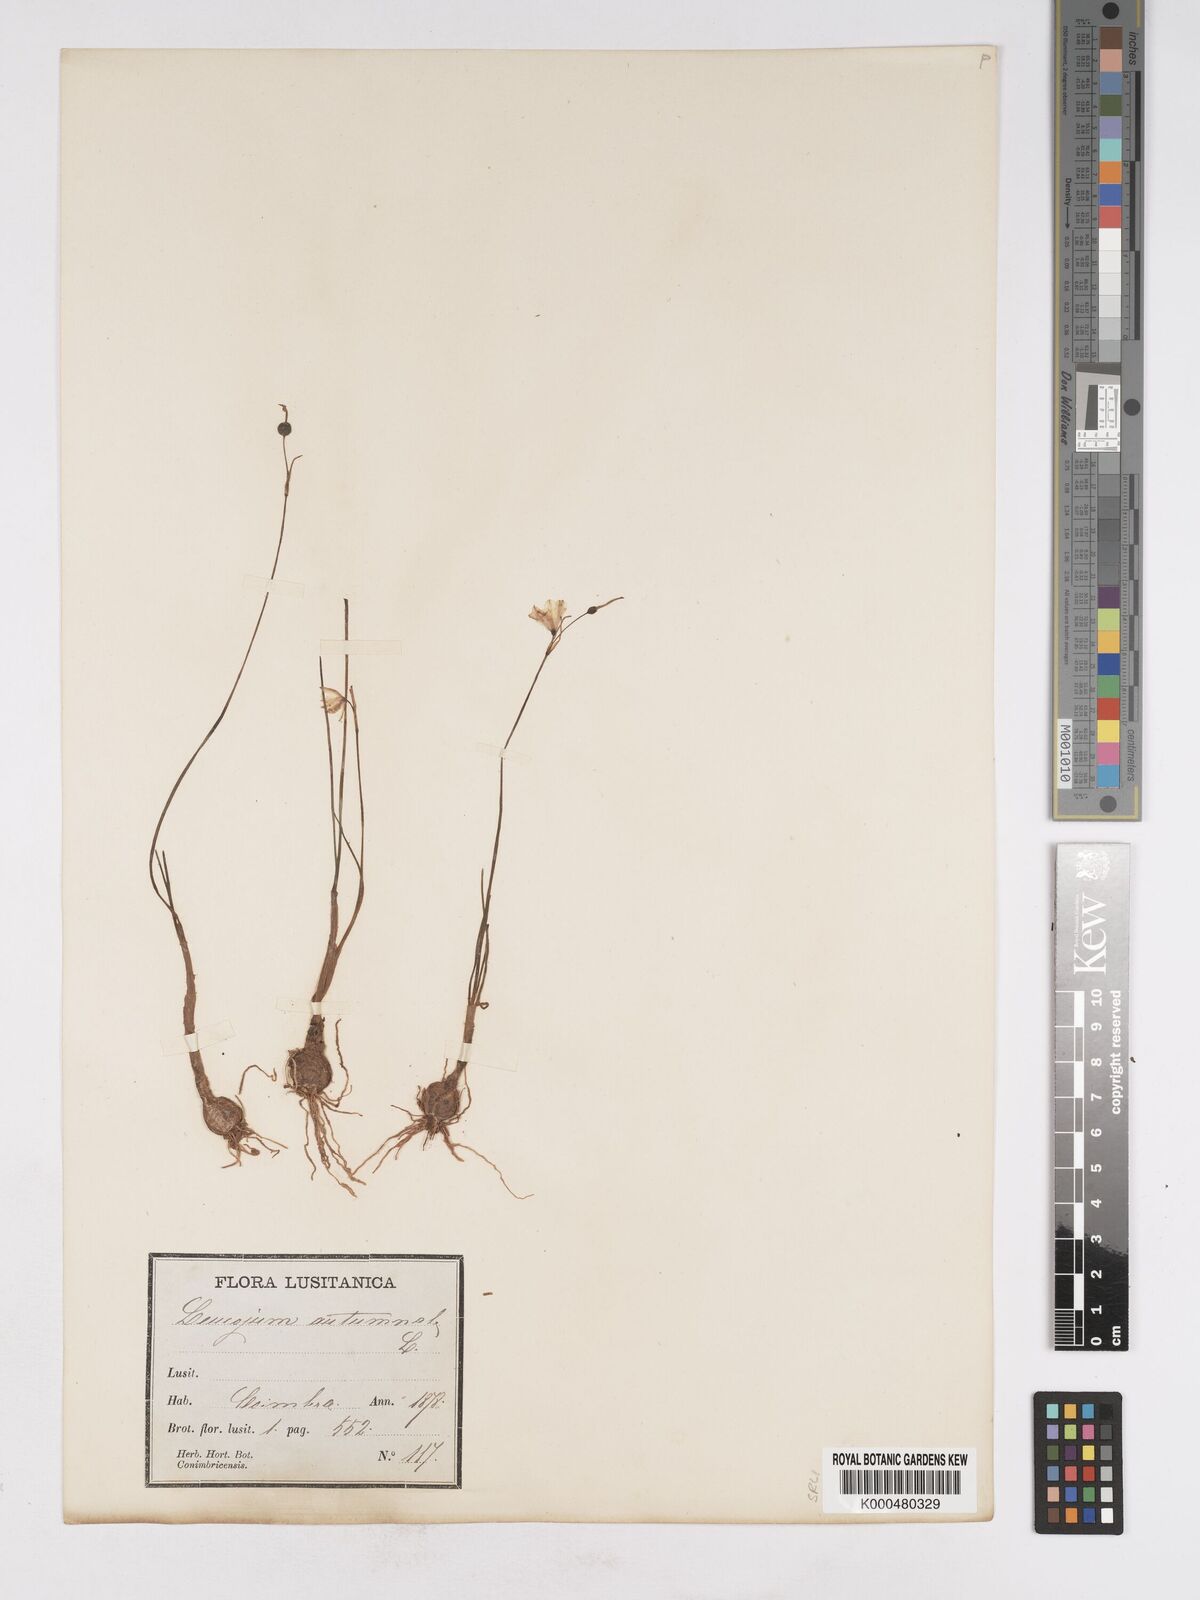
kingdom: Plantae
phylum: Tracheophyta
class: Liliopsida
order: Asparagales
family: Amaryllidaceae
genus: Acis
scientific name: Acis autumnalis
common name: Autumn snowflake
